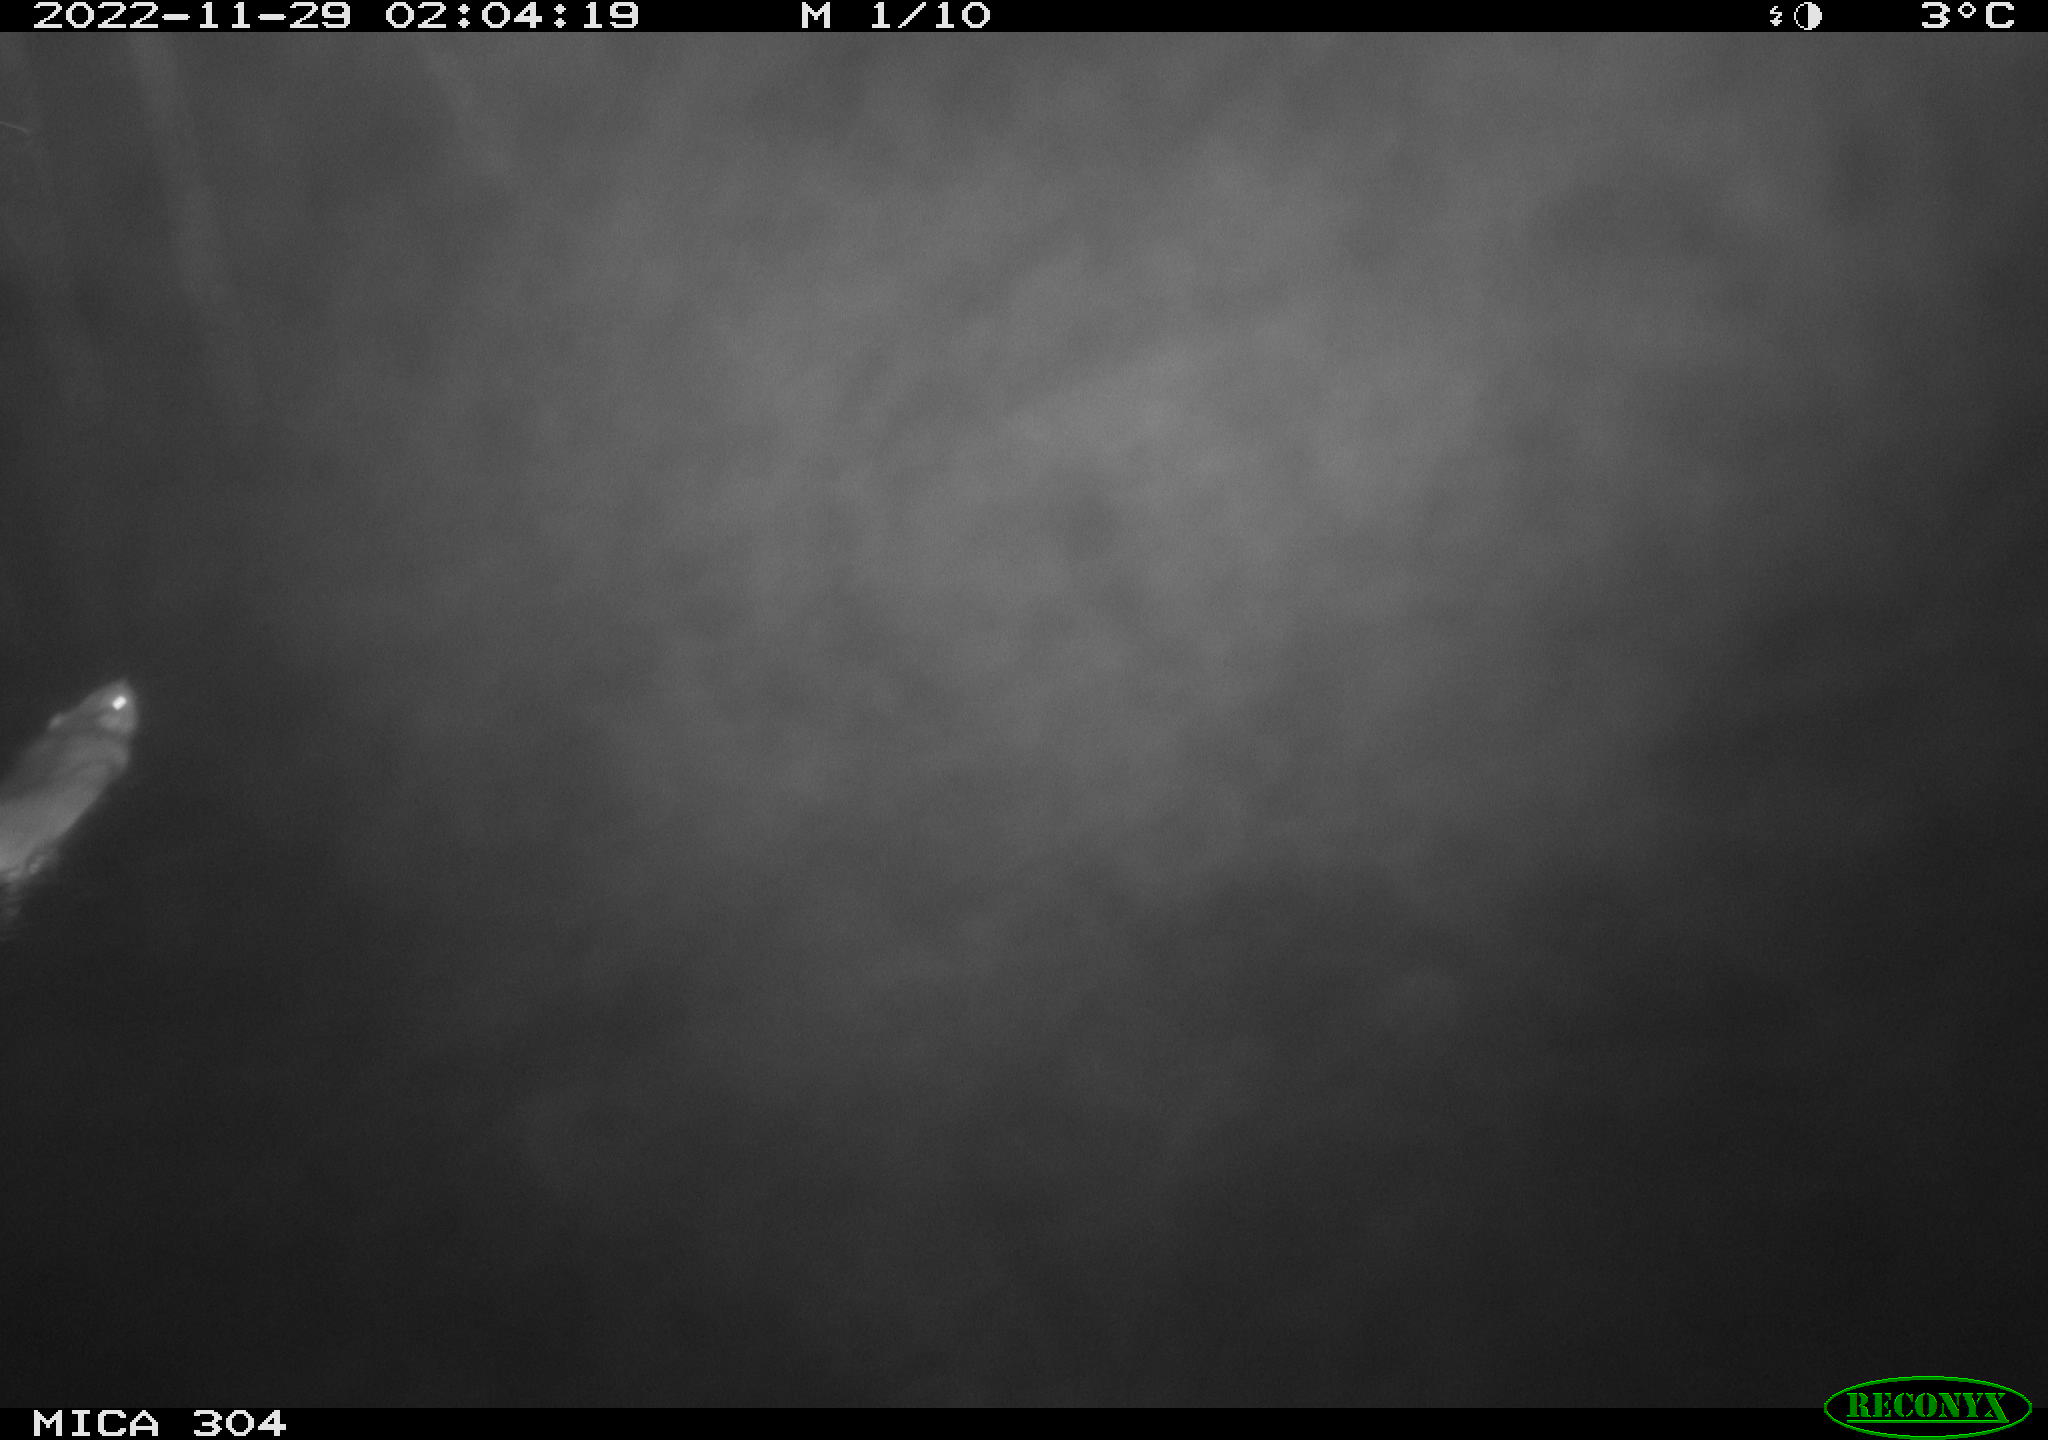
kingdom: Animalia
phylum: Chordata
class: Mammalia
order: Rodentia
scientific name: Rodentia
